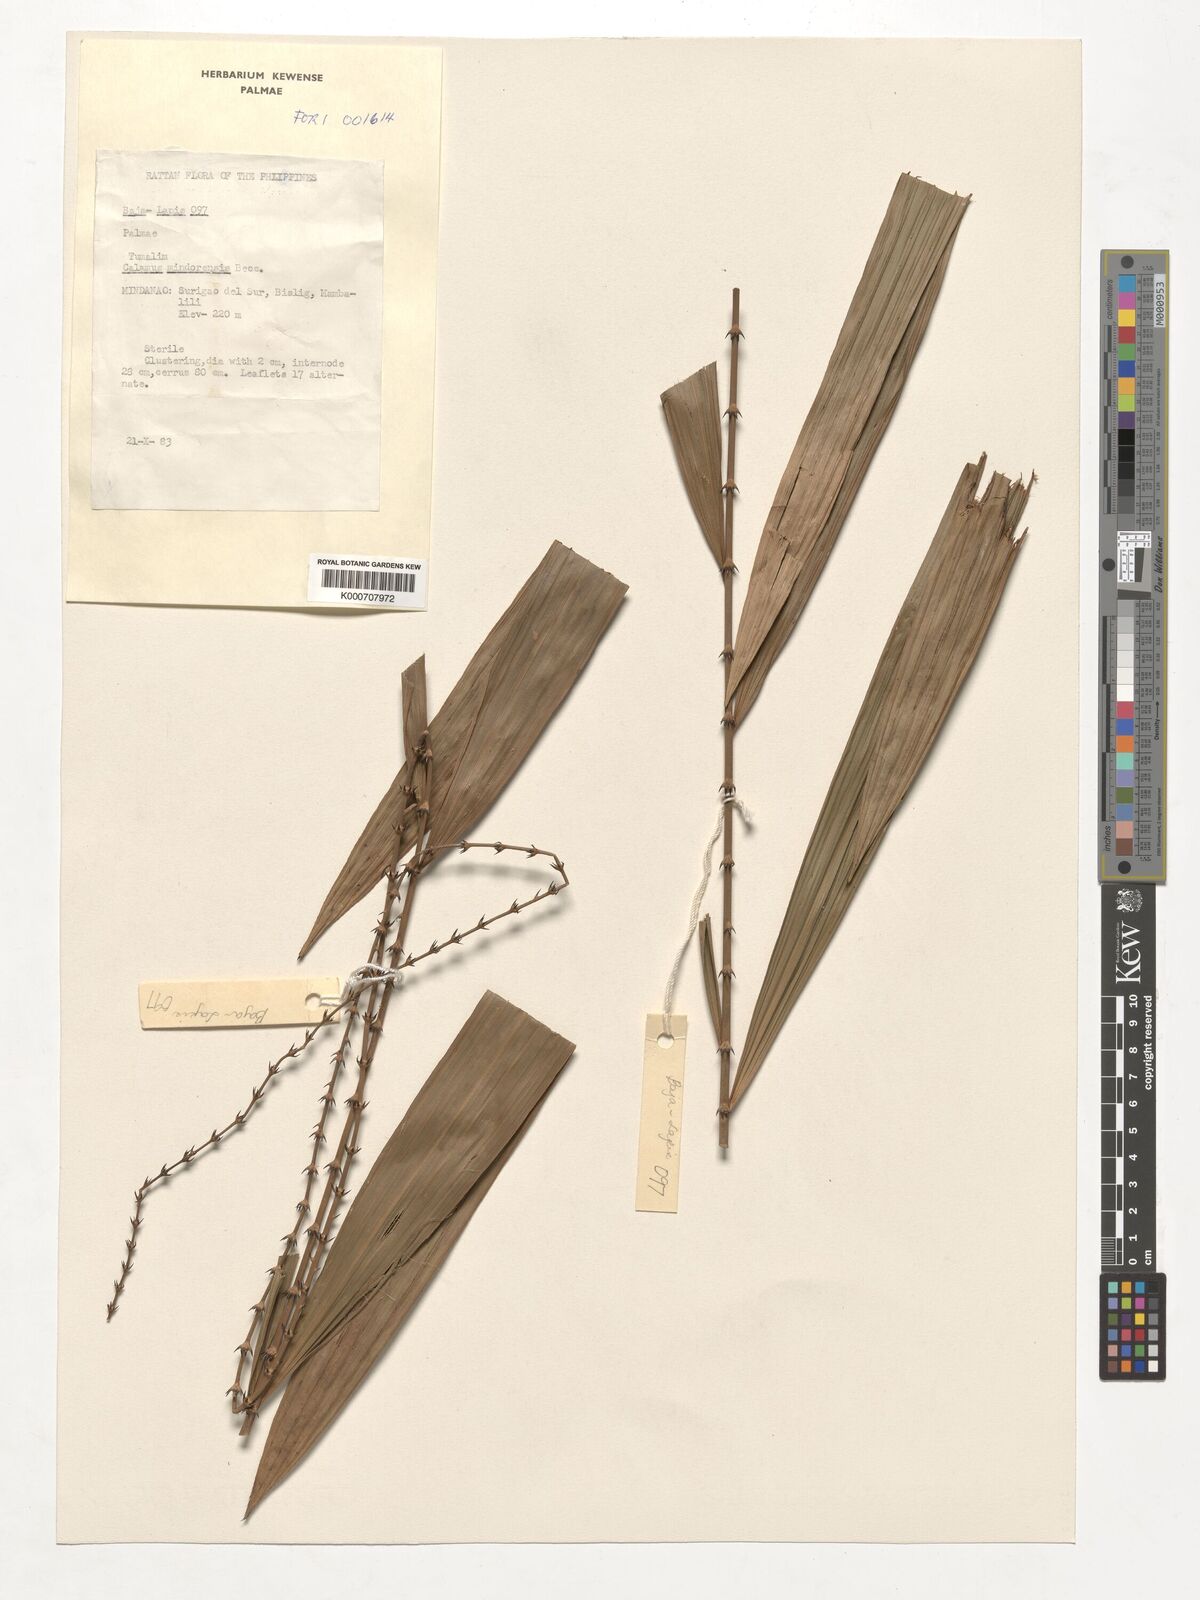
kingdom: Plantae
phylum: Tracheophyta
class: Liliopsida
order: Arecales
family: Arecaceae
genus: Calamus
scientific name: Calamus moseleyanus
